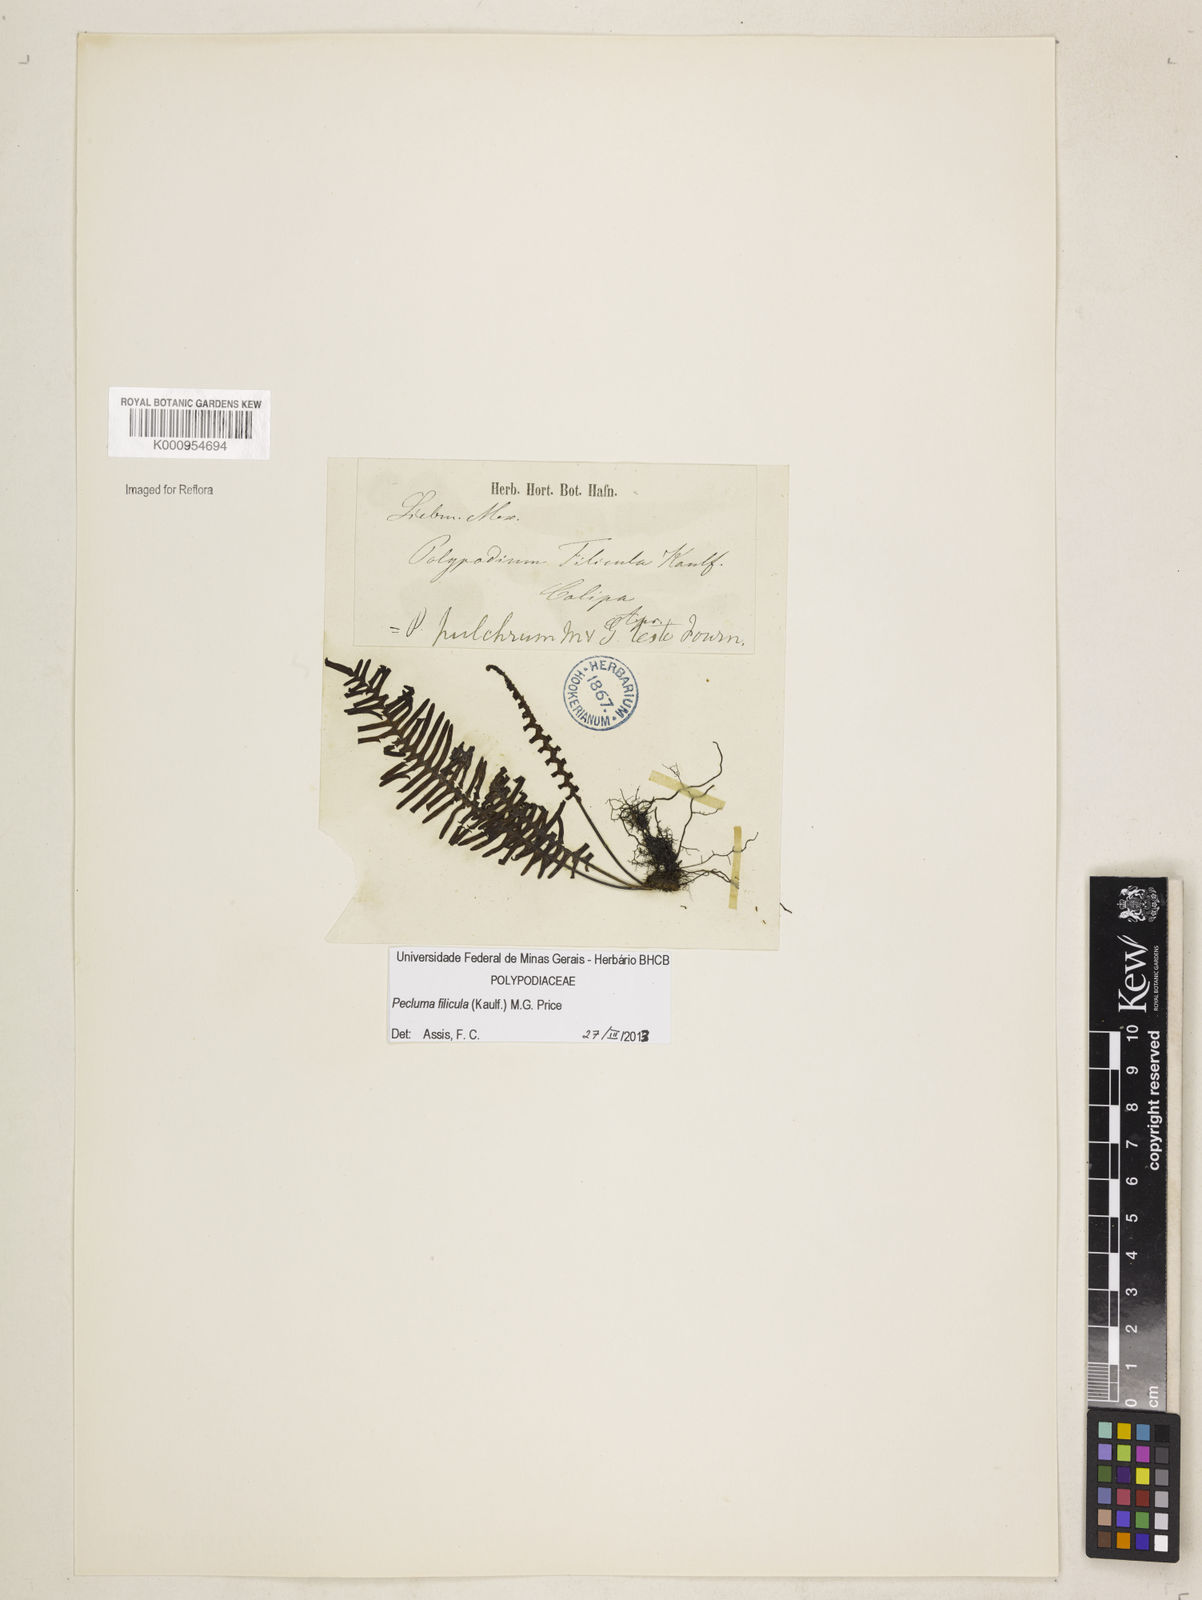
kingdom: Plantae
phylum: Tracheophyta
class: Polypodiopsida
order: Polypodiales
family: Polypodiaceae
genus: Pecluma
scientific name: Pecluma filicula
